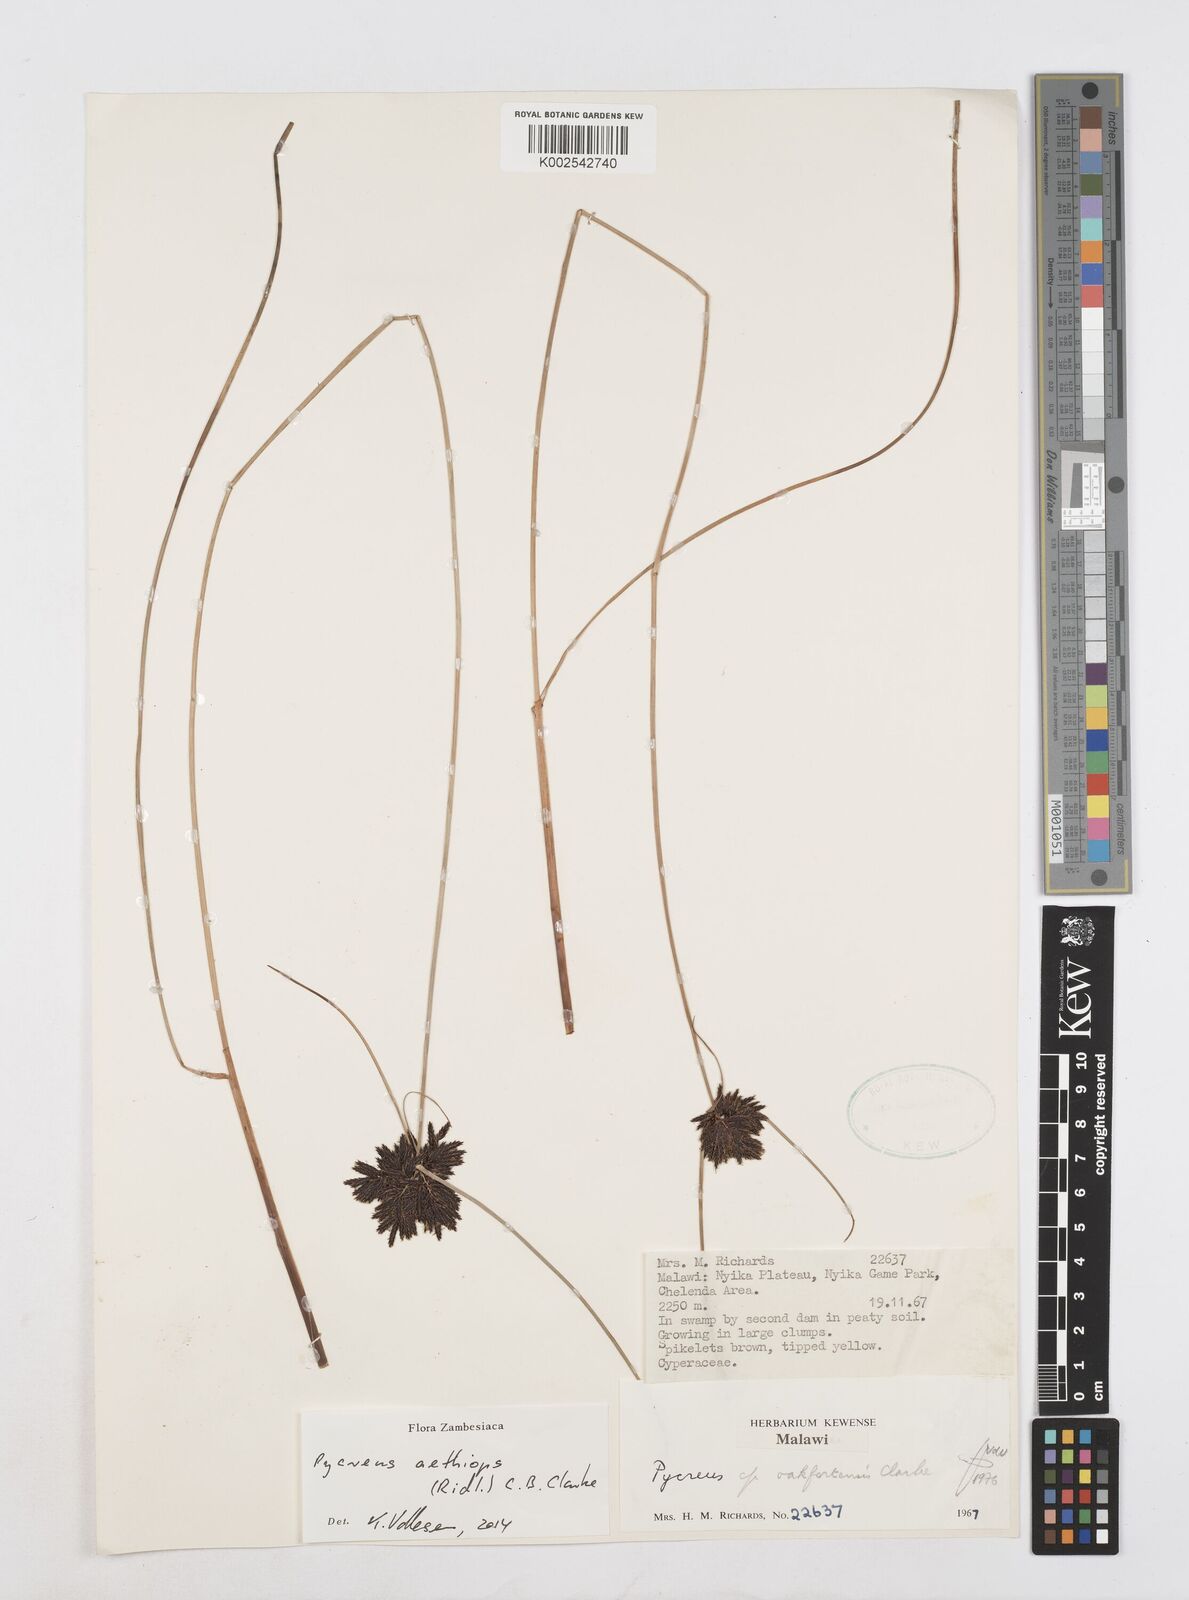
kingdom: Plantae
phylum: Tracheophyta
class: Liliopsida
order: Poales
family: Cyperaceae
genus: Cyperus
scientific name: Cyperus aethiops
